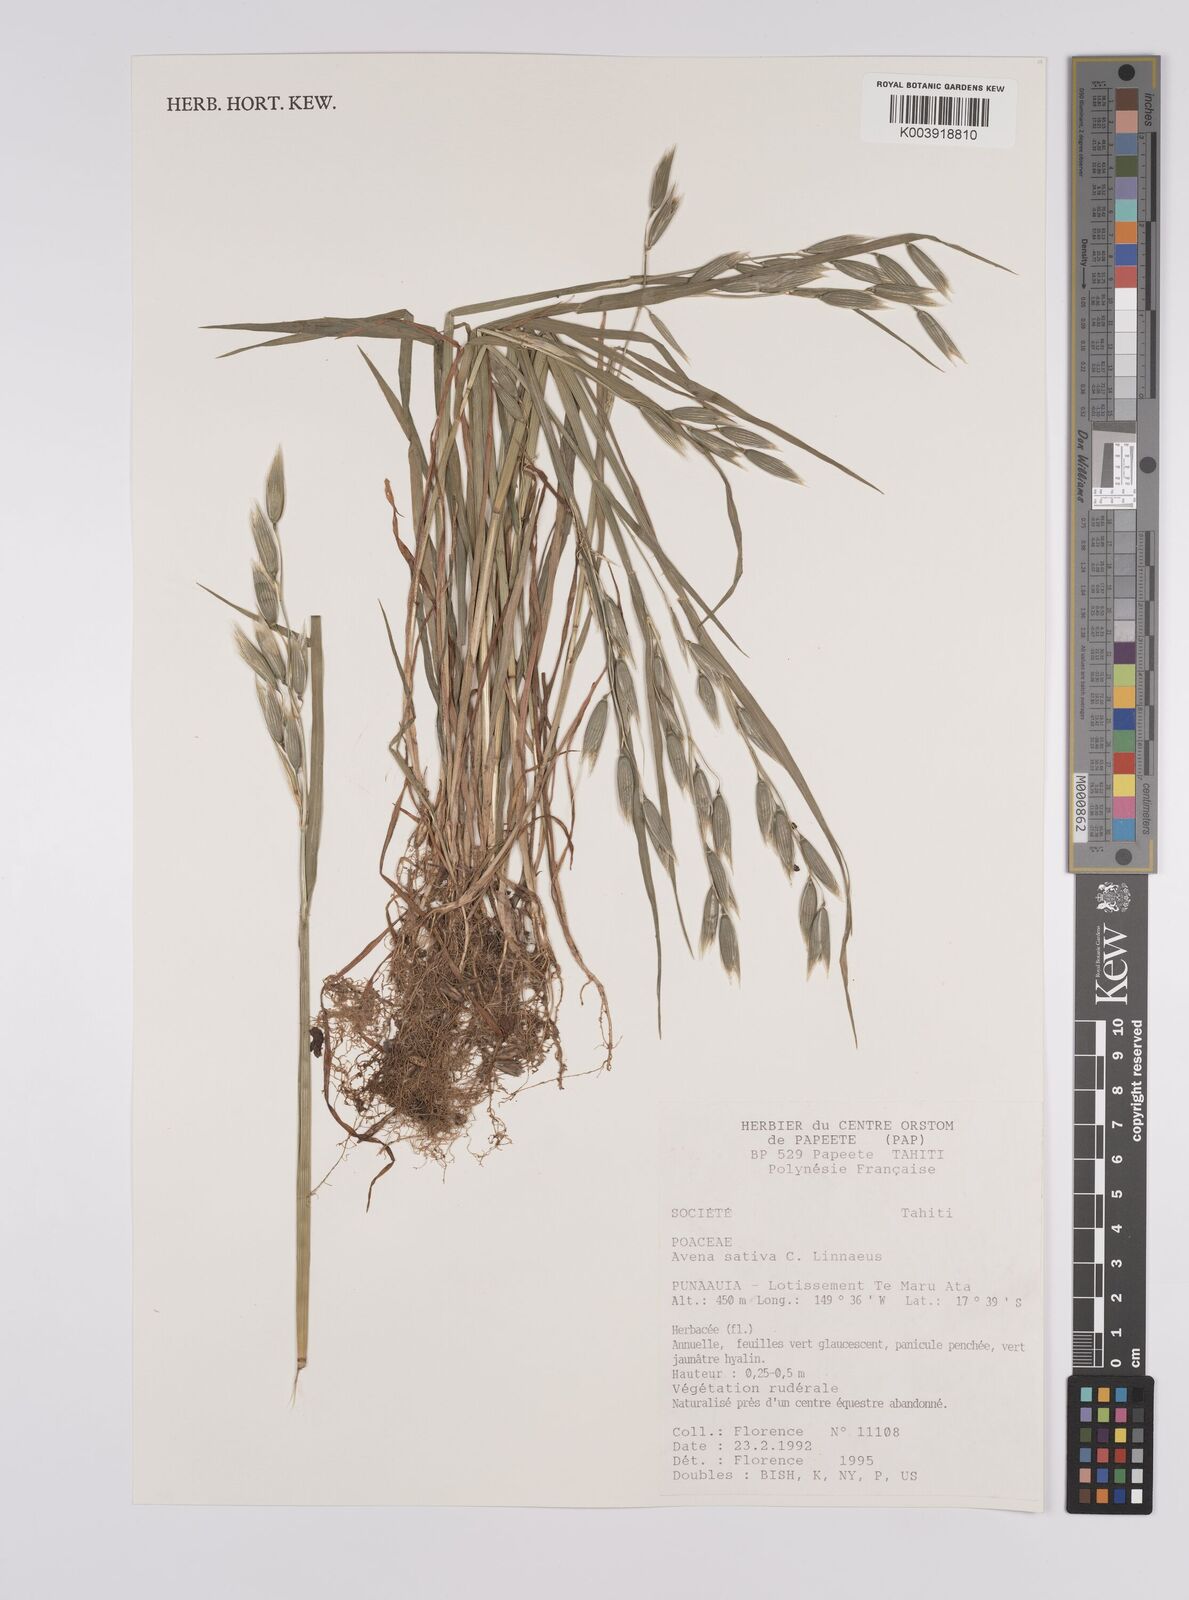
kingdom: Plantae
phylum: Tracheophyta
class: Liliopsida
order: Poales
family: Poaceae
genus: Avena
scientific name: Avena sativa
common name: Oat
